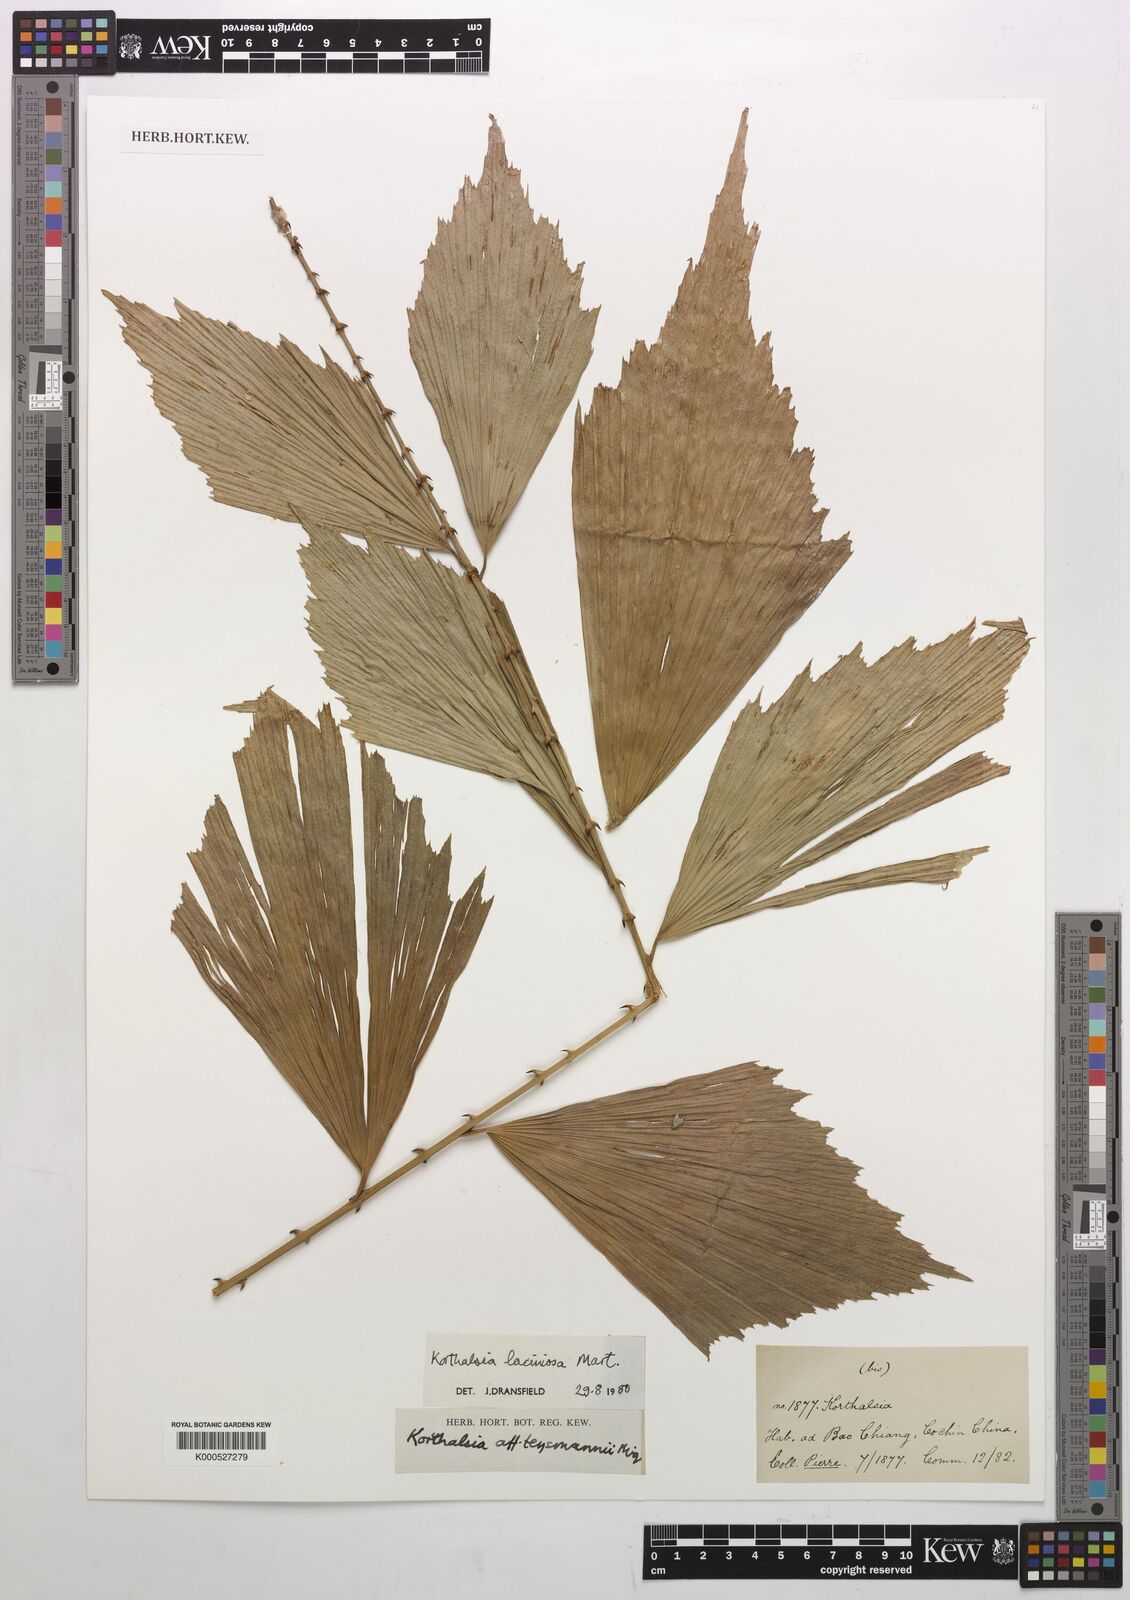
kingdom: Plantae
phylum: Tracheophyta
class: Liliopsida
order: Arecales
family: Arecaceae
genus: Korthalsia
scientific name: Korthalsia laciniosa
